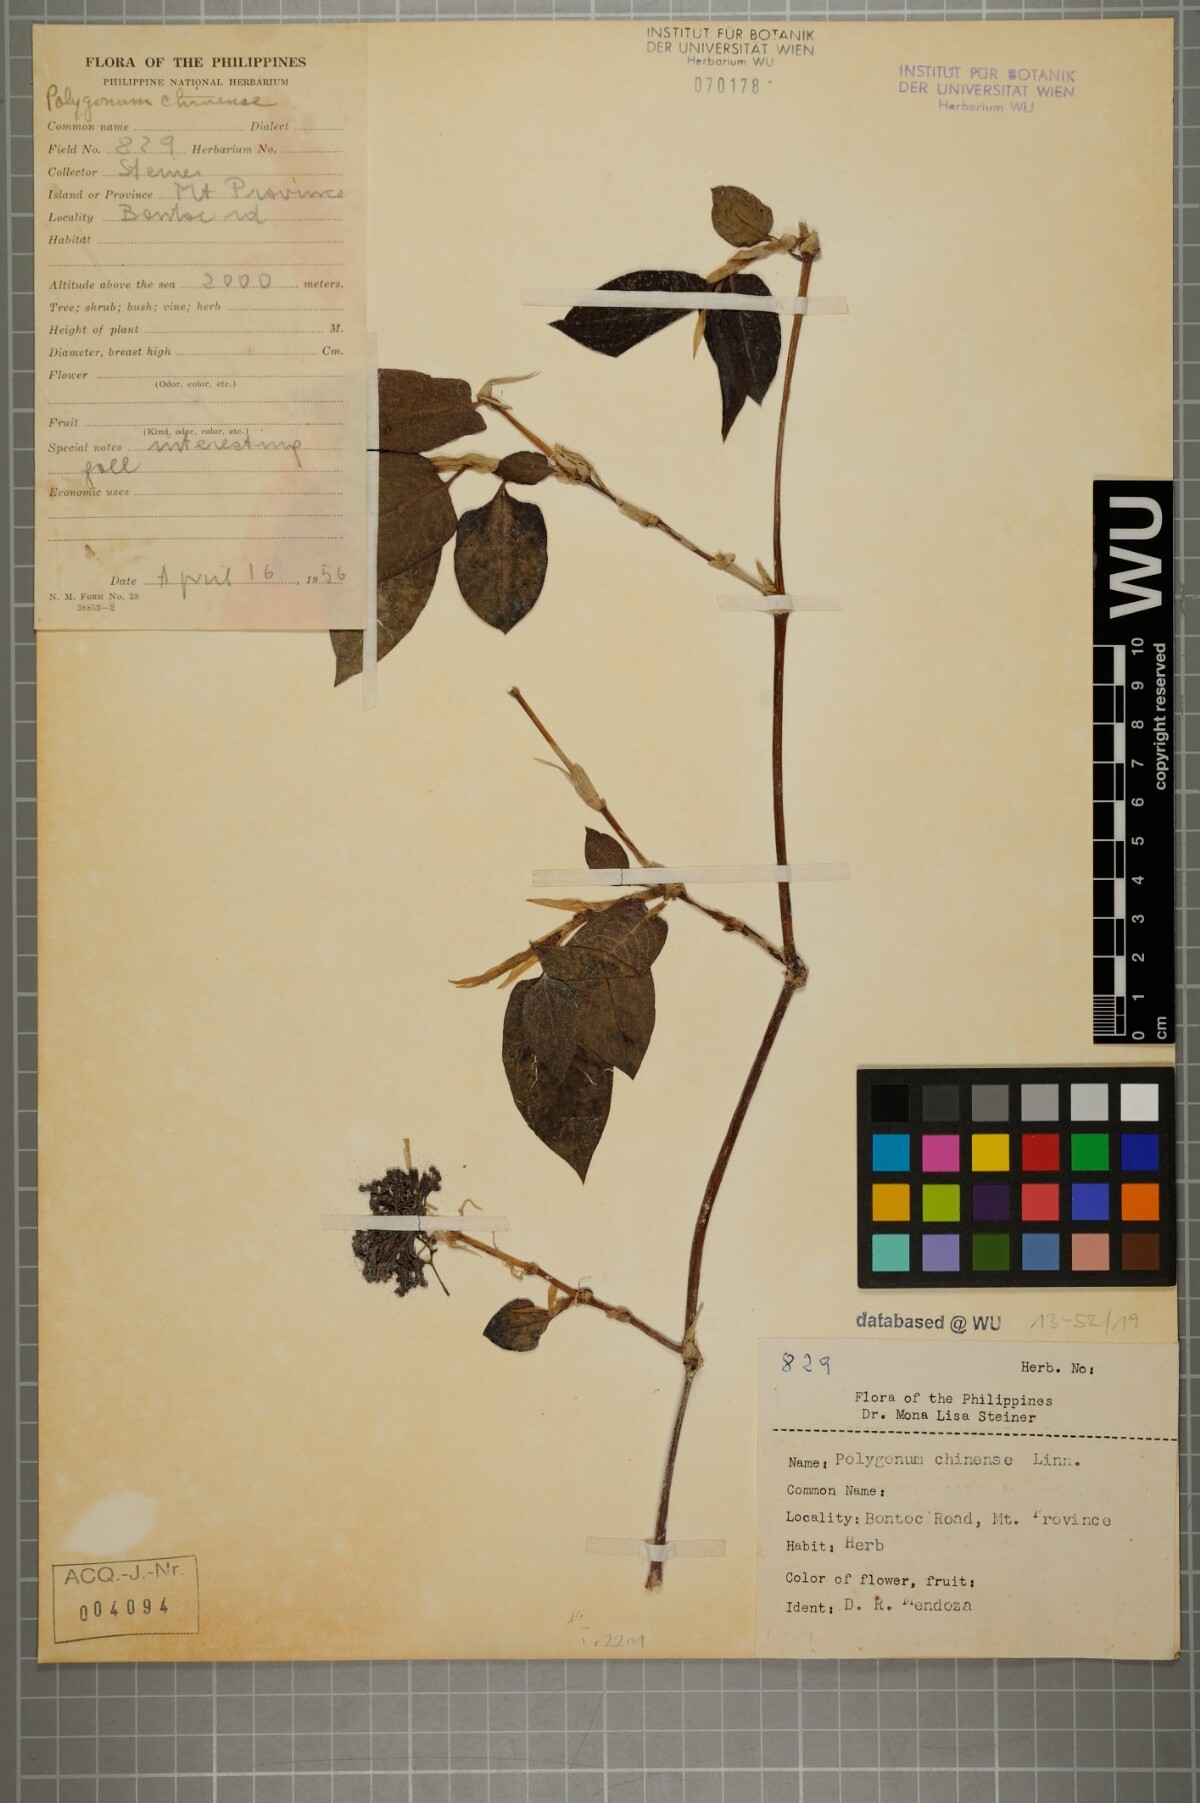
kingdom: Plantae
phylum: Tracheophyta
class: Magnoliopsida
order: Caryophyllales
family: Polygonaceae
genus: Persicaria
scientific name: Persicaria chinensis
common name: Chinese knotweed
